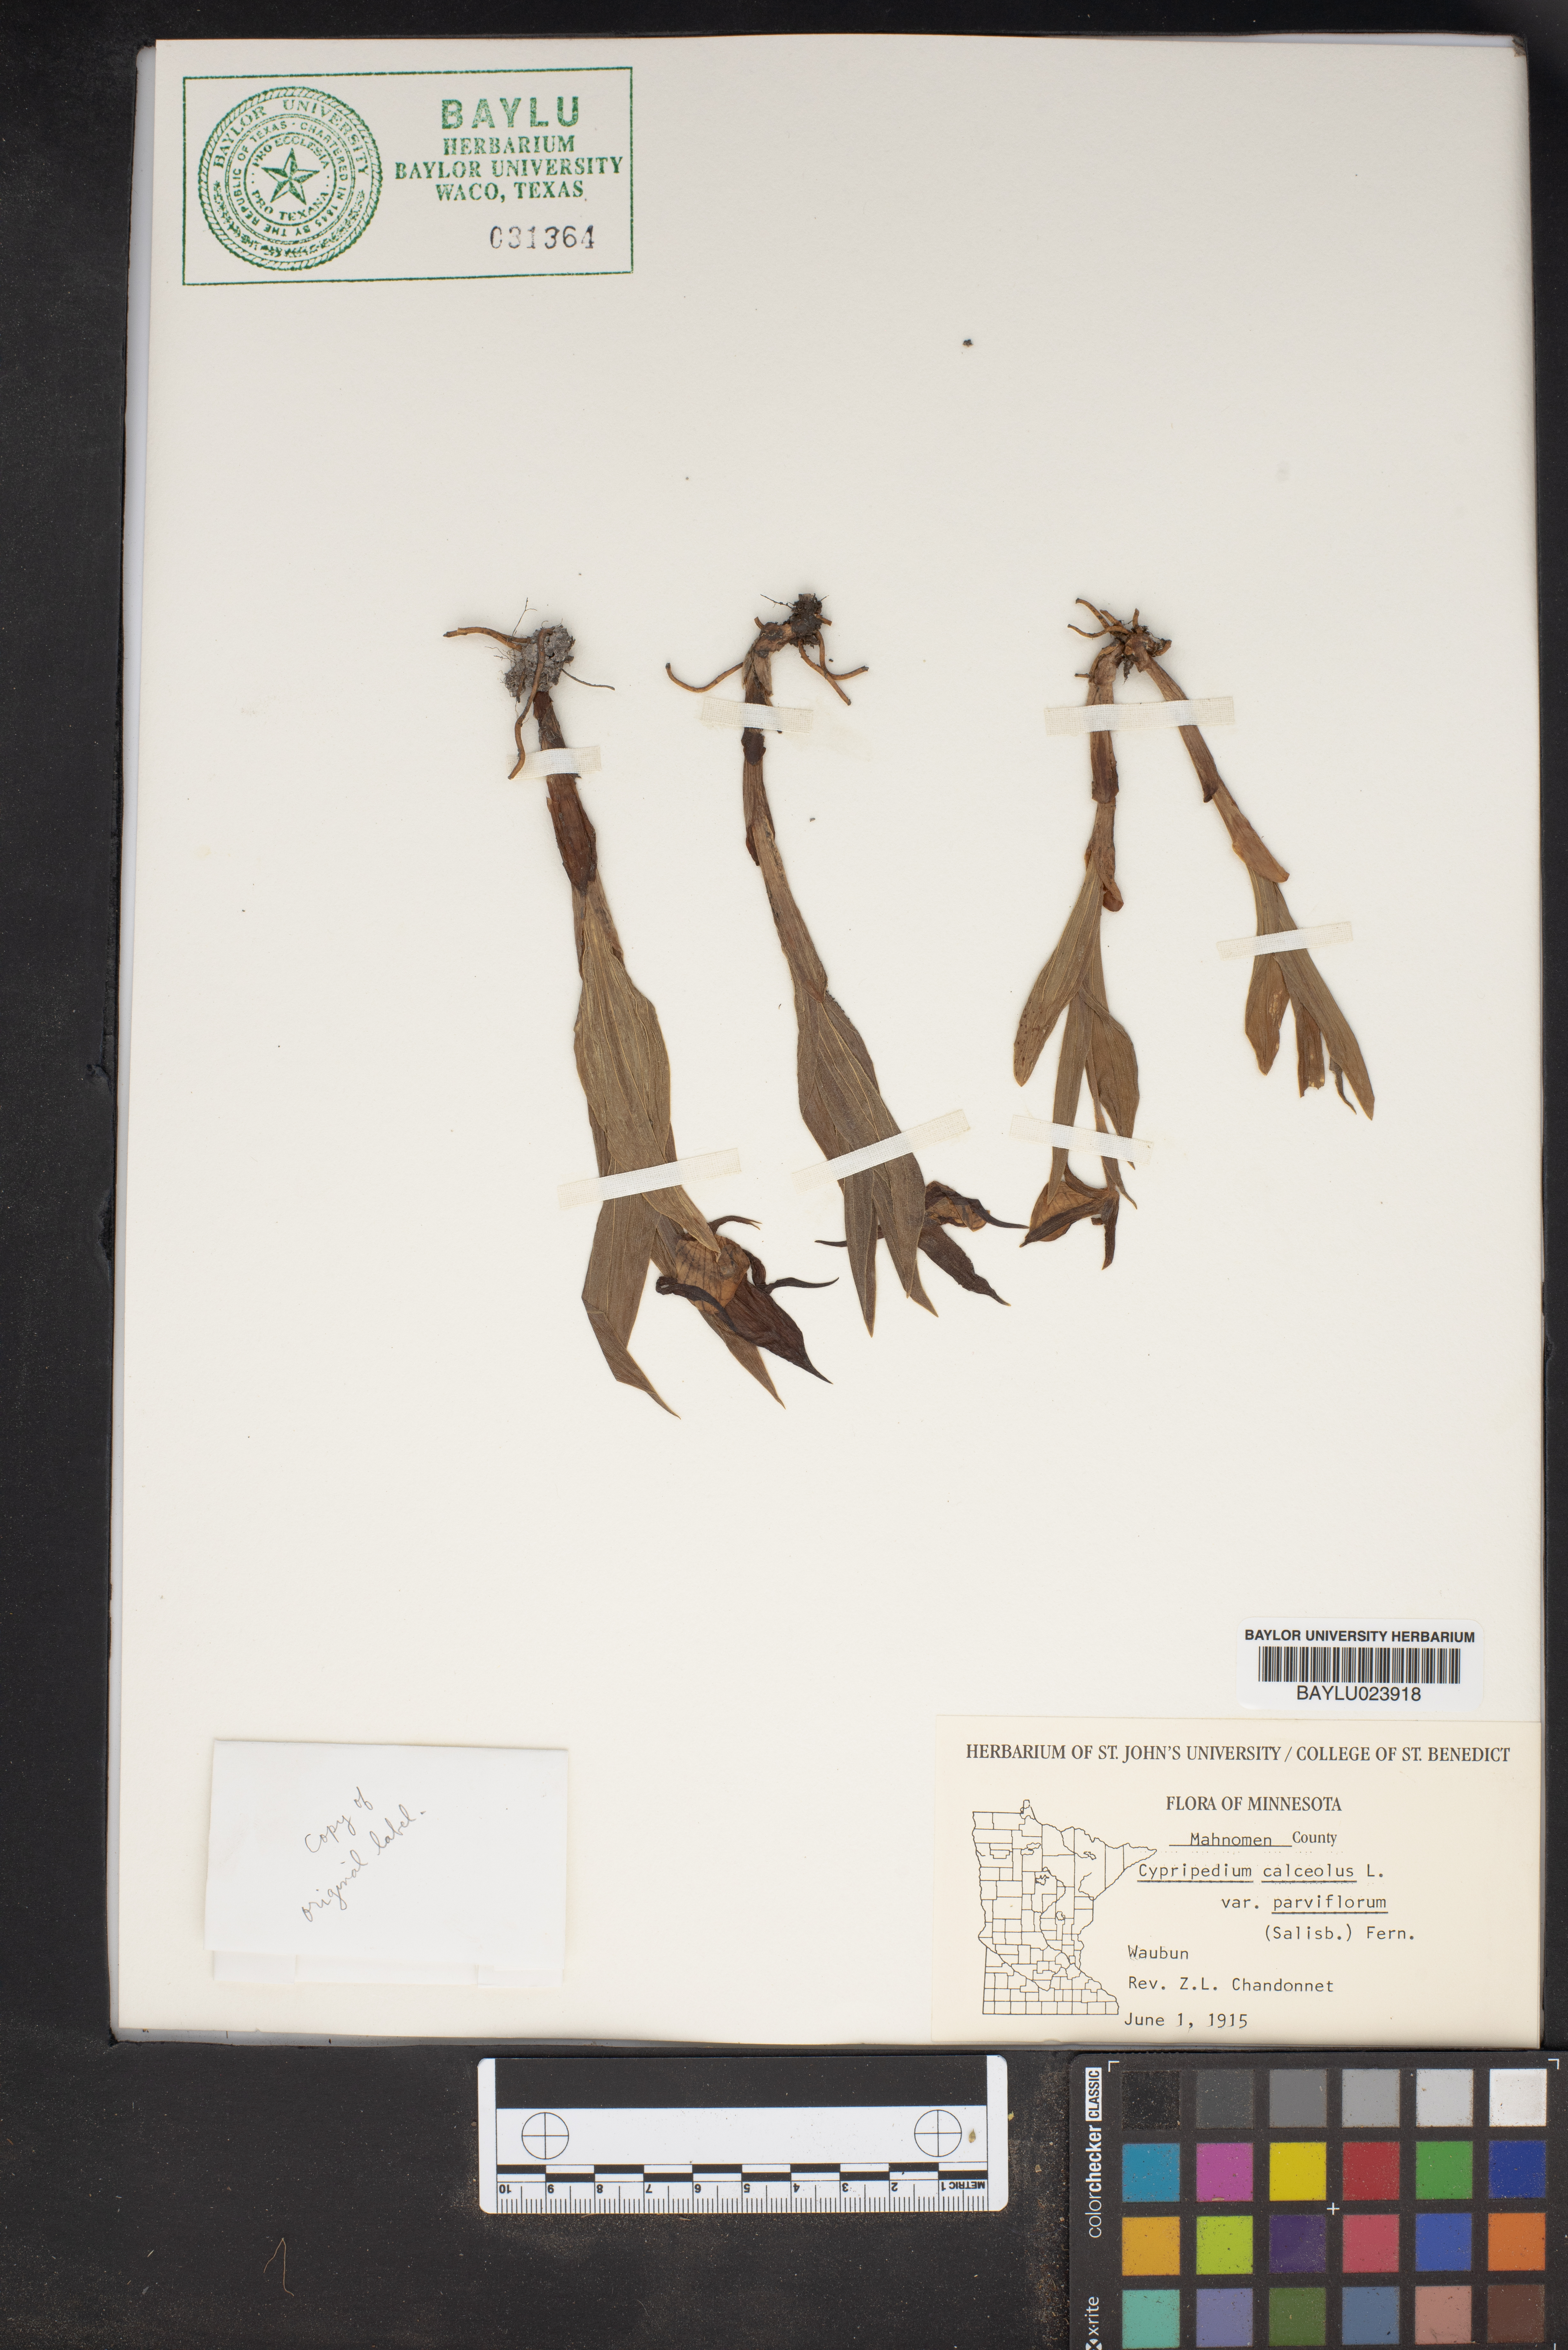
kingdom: Plantae
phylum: Tracheophyta
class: Liliopsida
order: Asparagales
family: Orchidaceae
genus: Cypripedium
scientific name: Cypripedium calceolus
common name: Lady's-slipper
